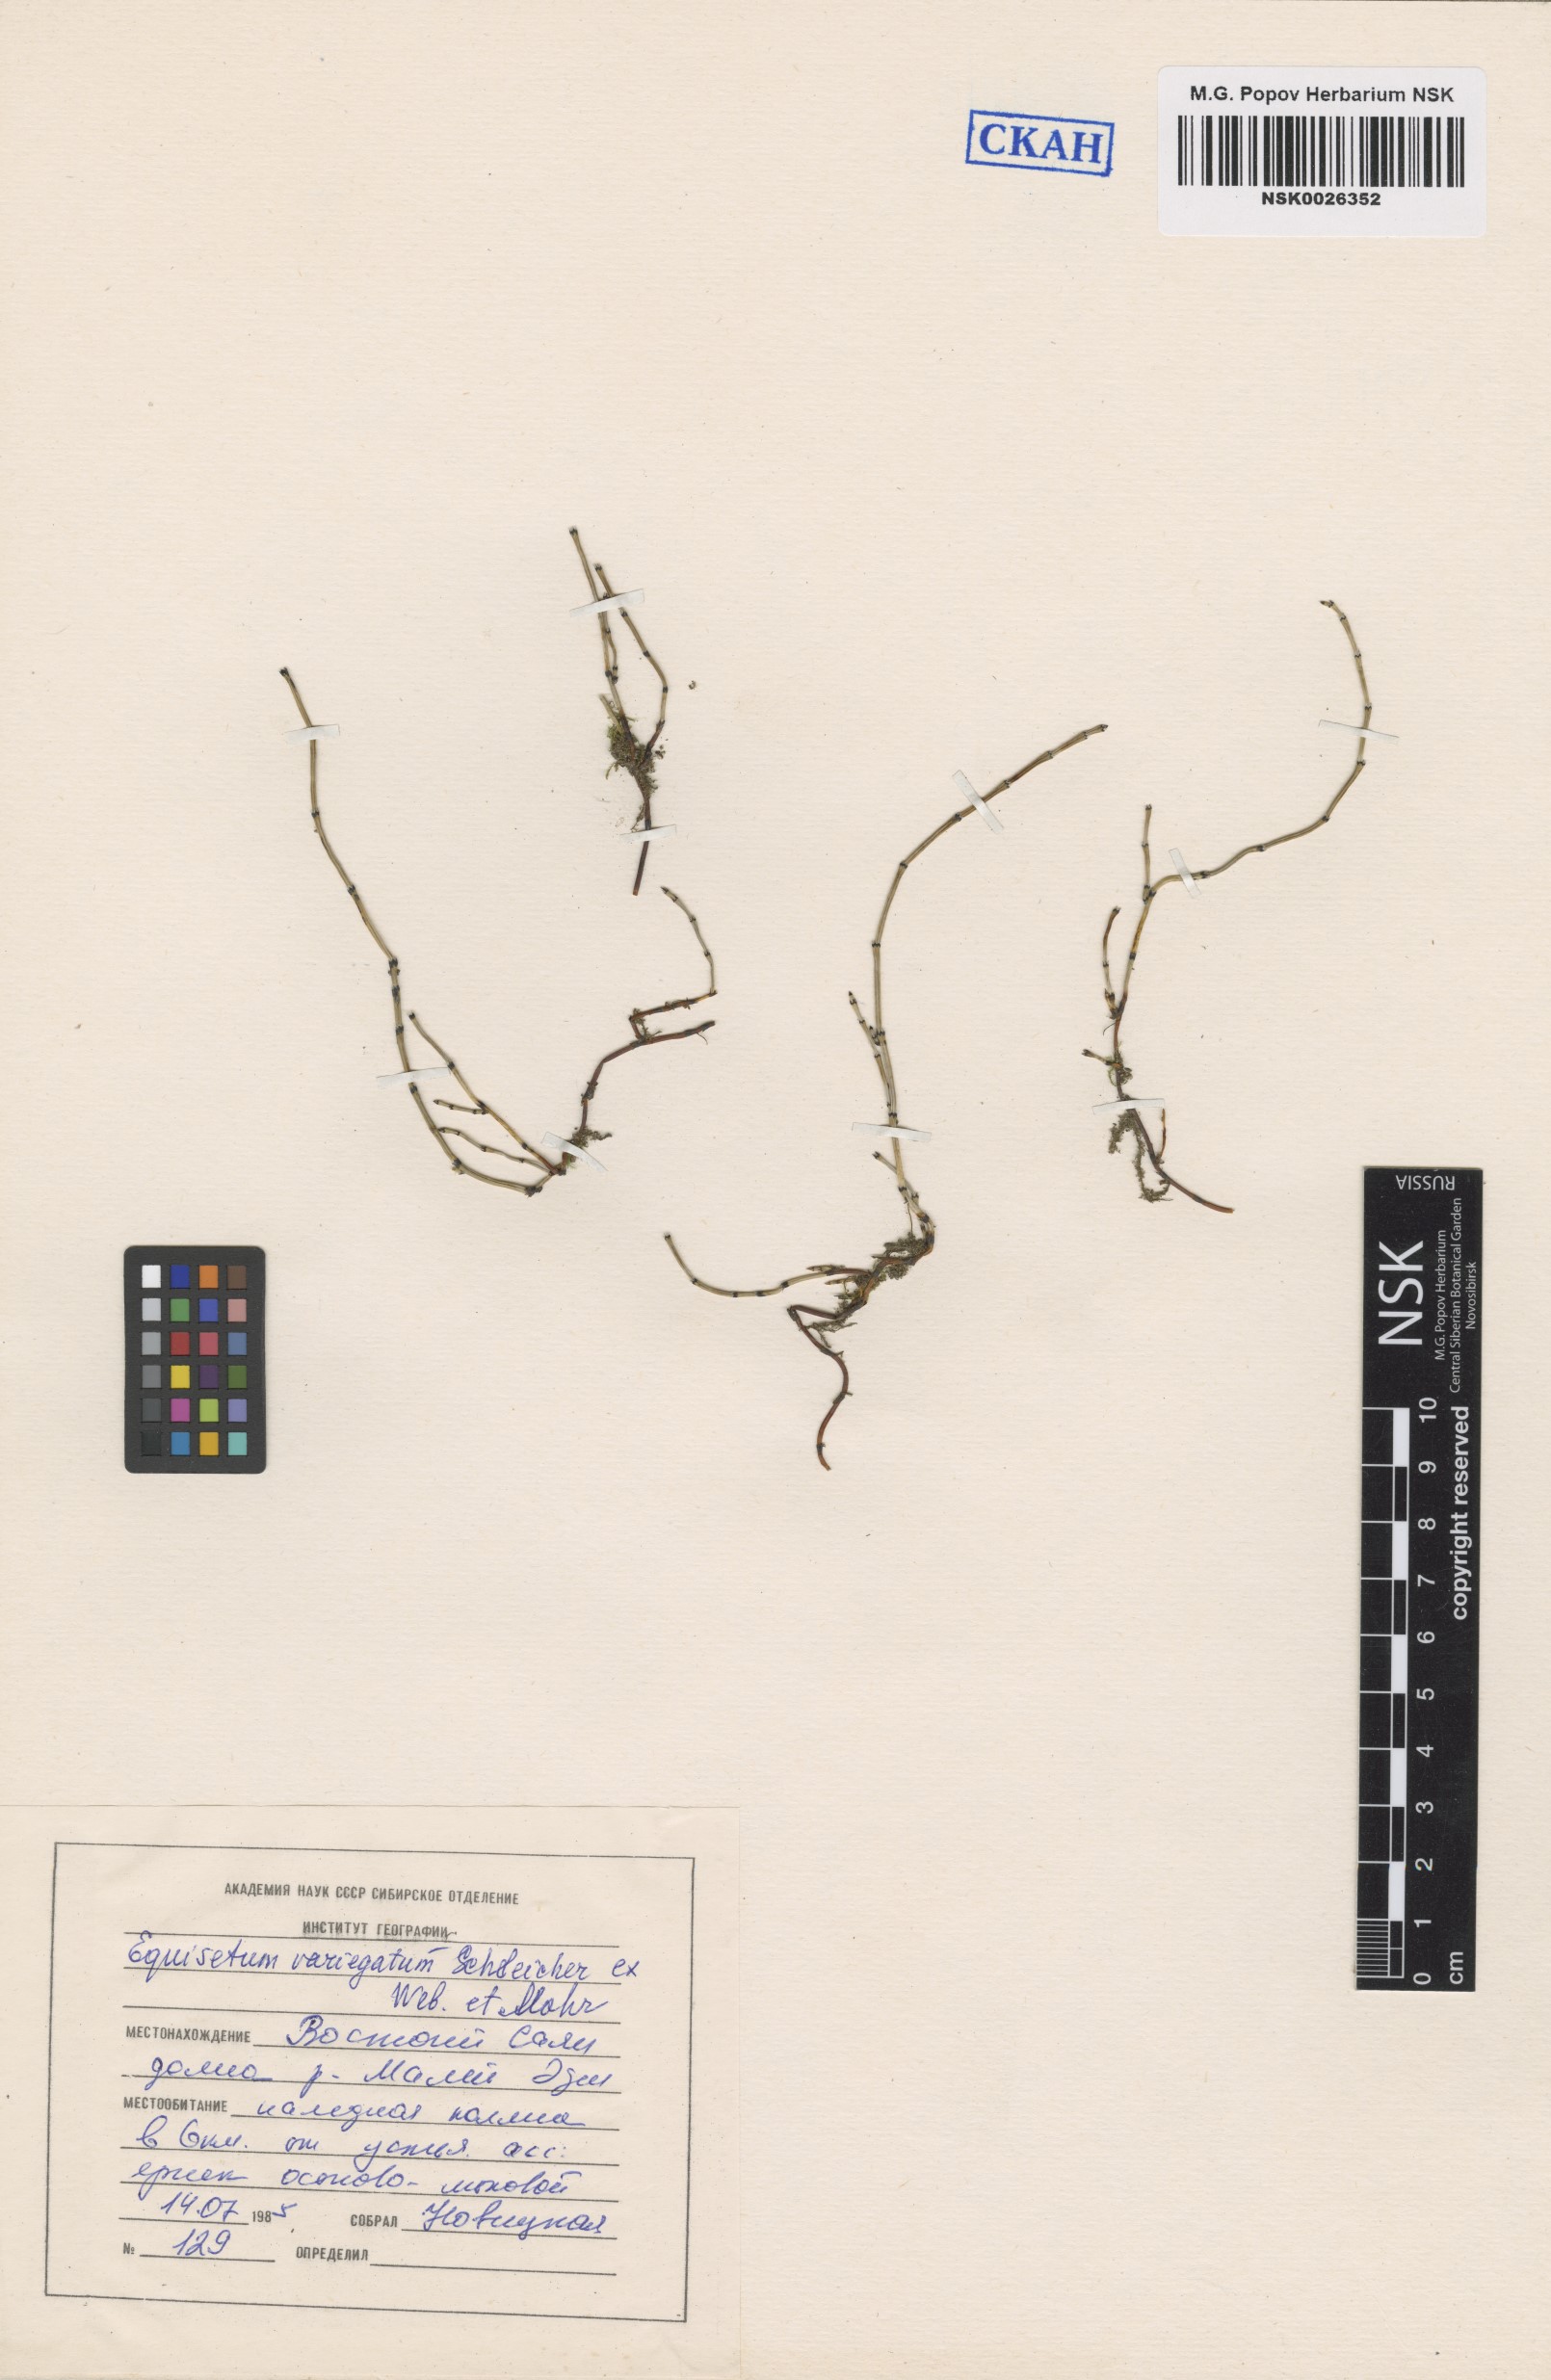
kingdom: Plantae
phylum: Tracheophyta
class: Polypodiopsida
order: Equisetales
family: Equisetaceae
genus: Equisetum
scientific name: Equisetum variegatum
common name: Variegated horsetail
